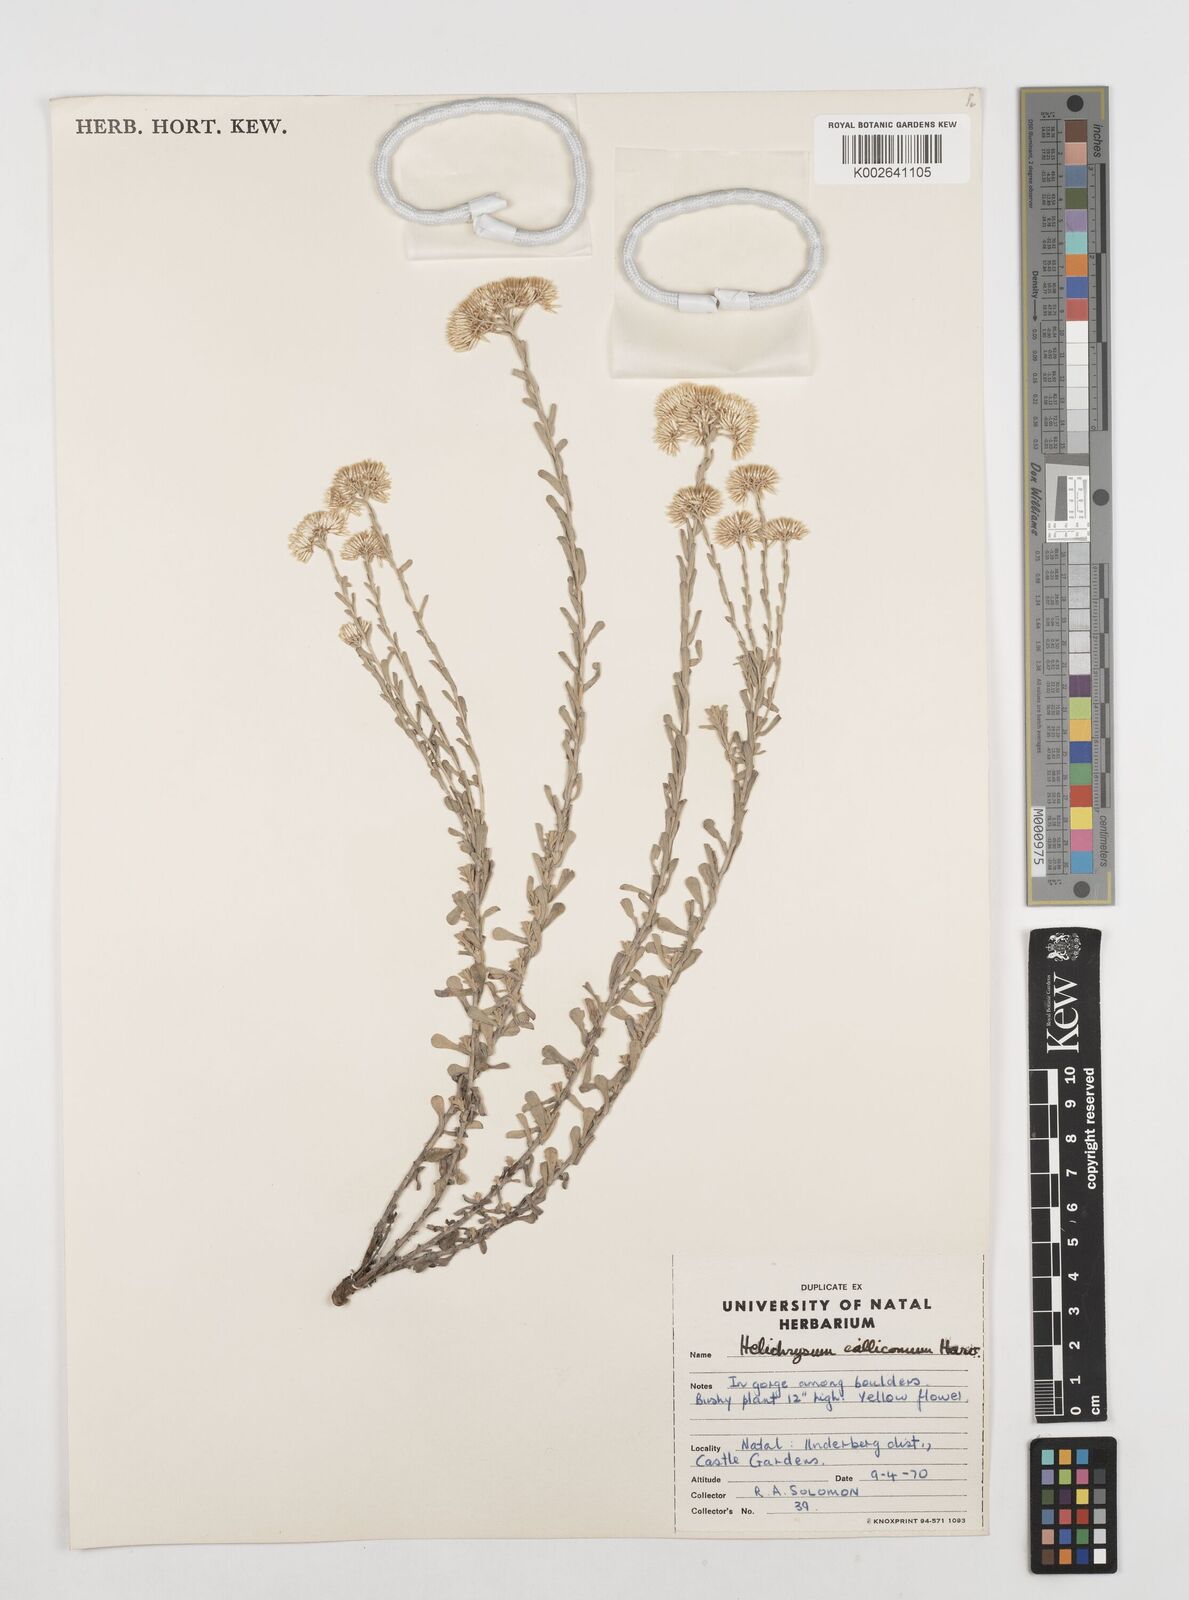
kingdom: Plantae
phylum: Tracheophyta
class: Magnoliopsida
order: Asterales
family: Asteraceae
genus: Helichrysum
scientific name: Helichrysum callicomum
